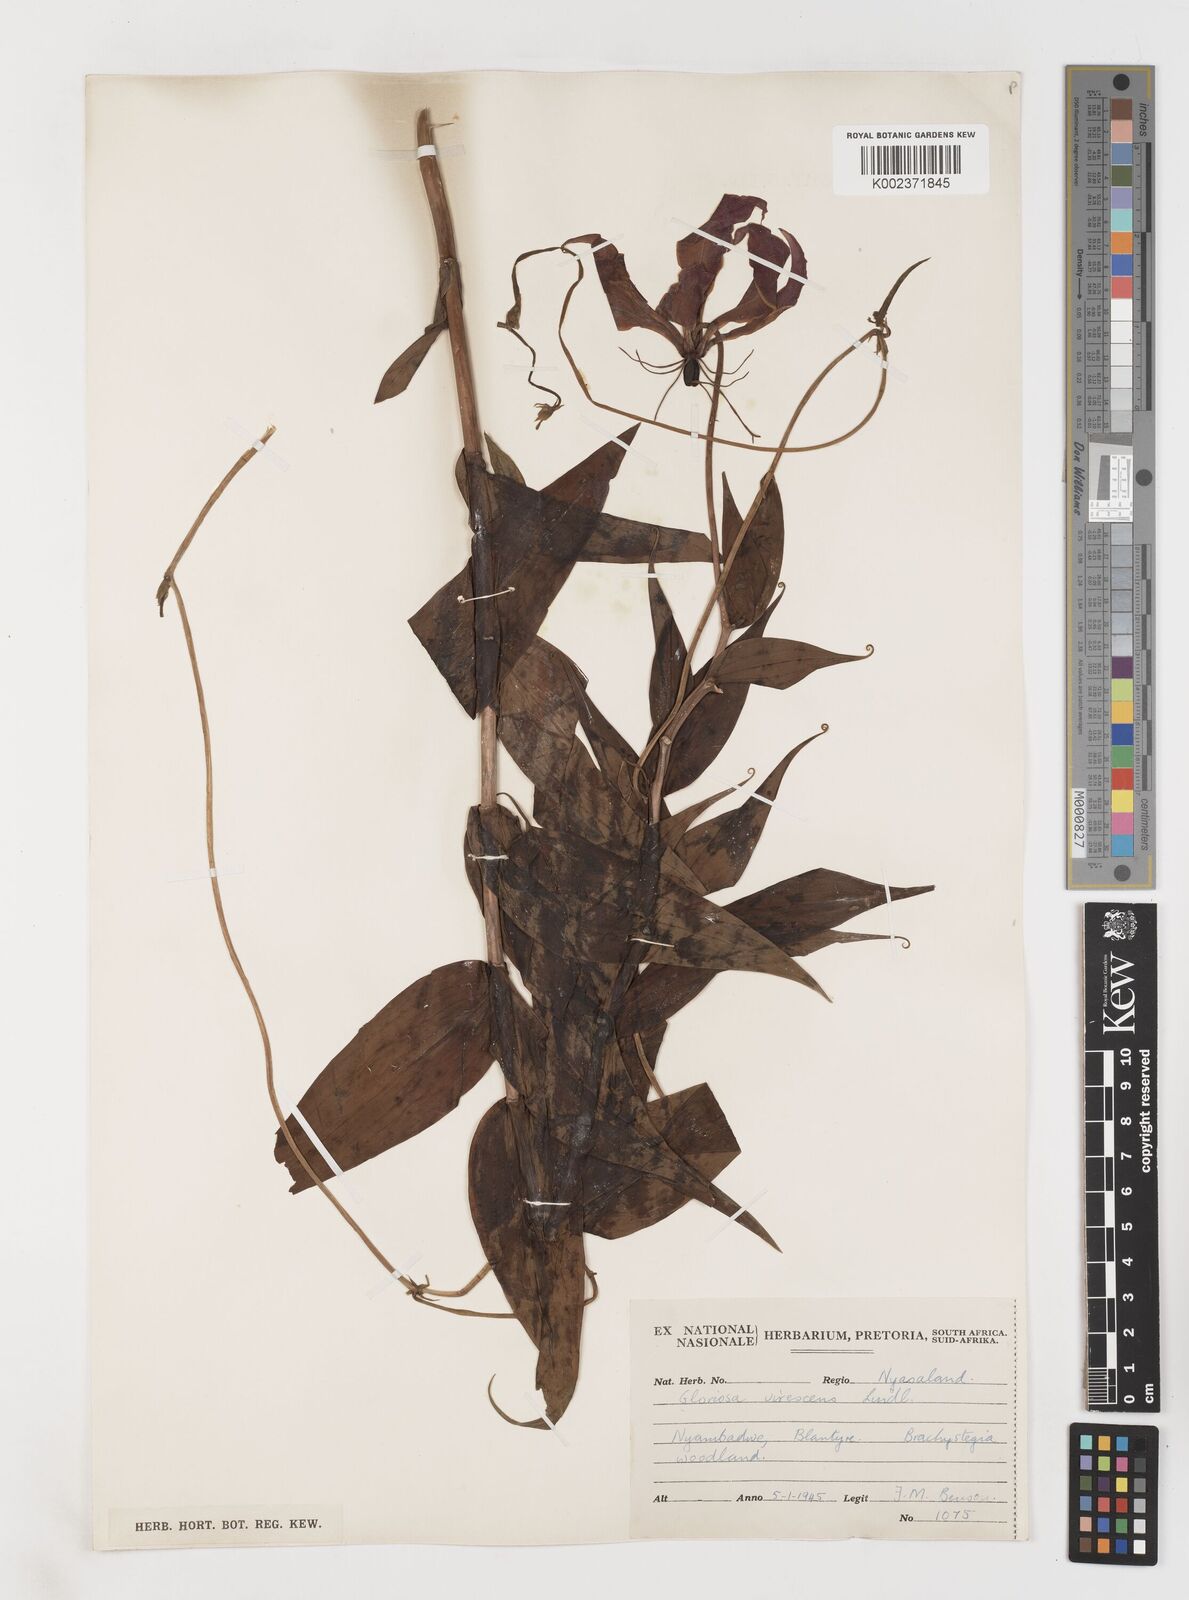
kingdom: Plantae
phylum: Tracheophyta
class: Liliopsida
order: Liliales
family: Colchicaceae
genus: Gloriosa
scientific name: Gloriosa simplex
